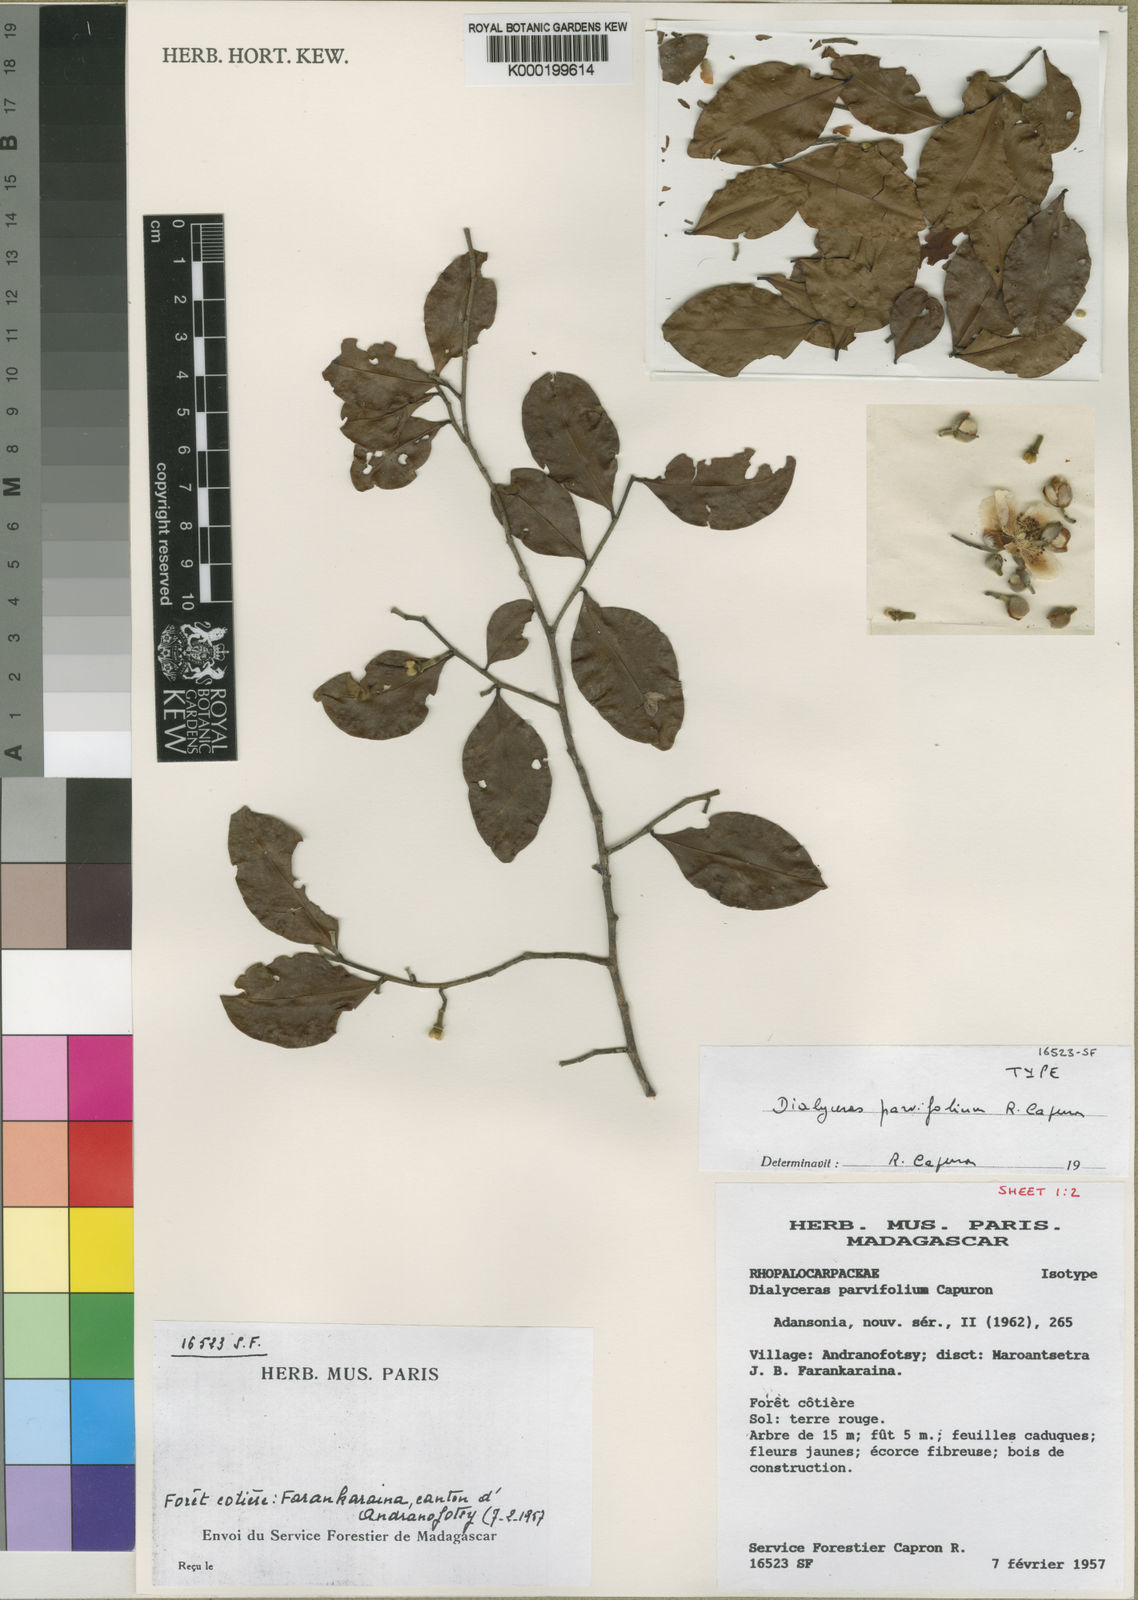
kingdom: Plantae
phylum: Tracheophyta
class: Magnoliopsida
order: Malvales
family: Sphaerosepalaceae
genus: Dialyceras
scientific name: Dialyceras parvifolium
